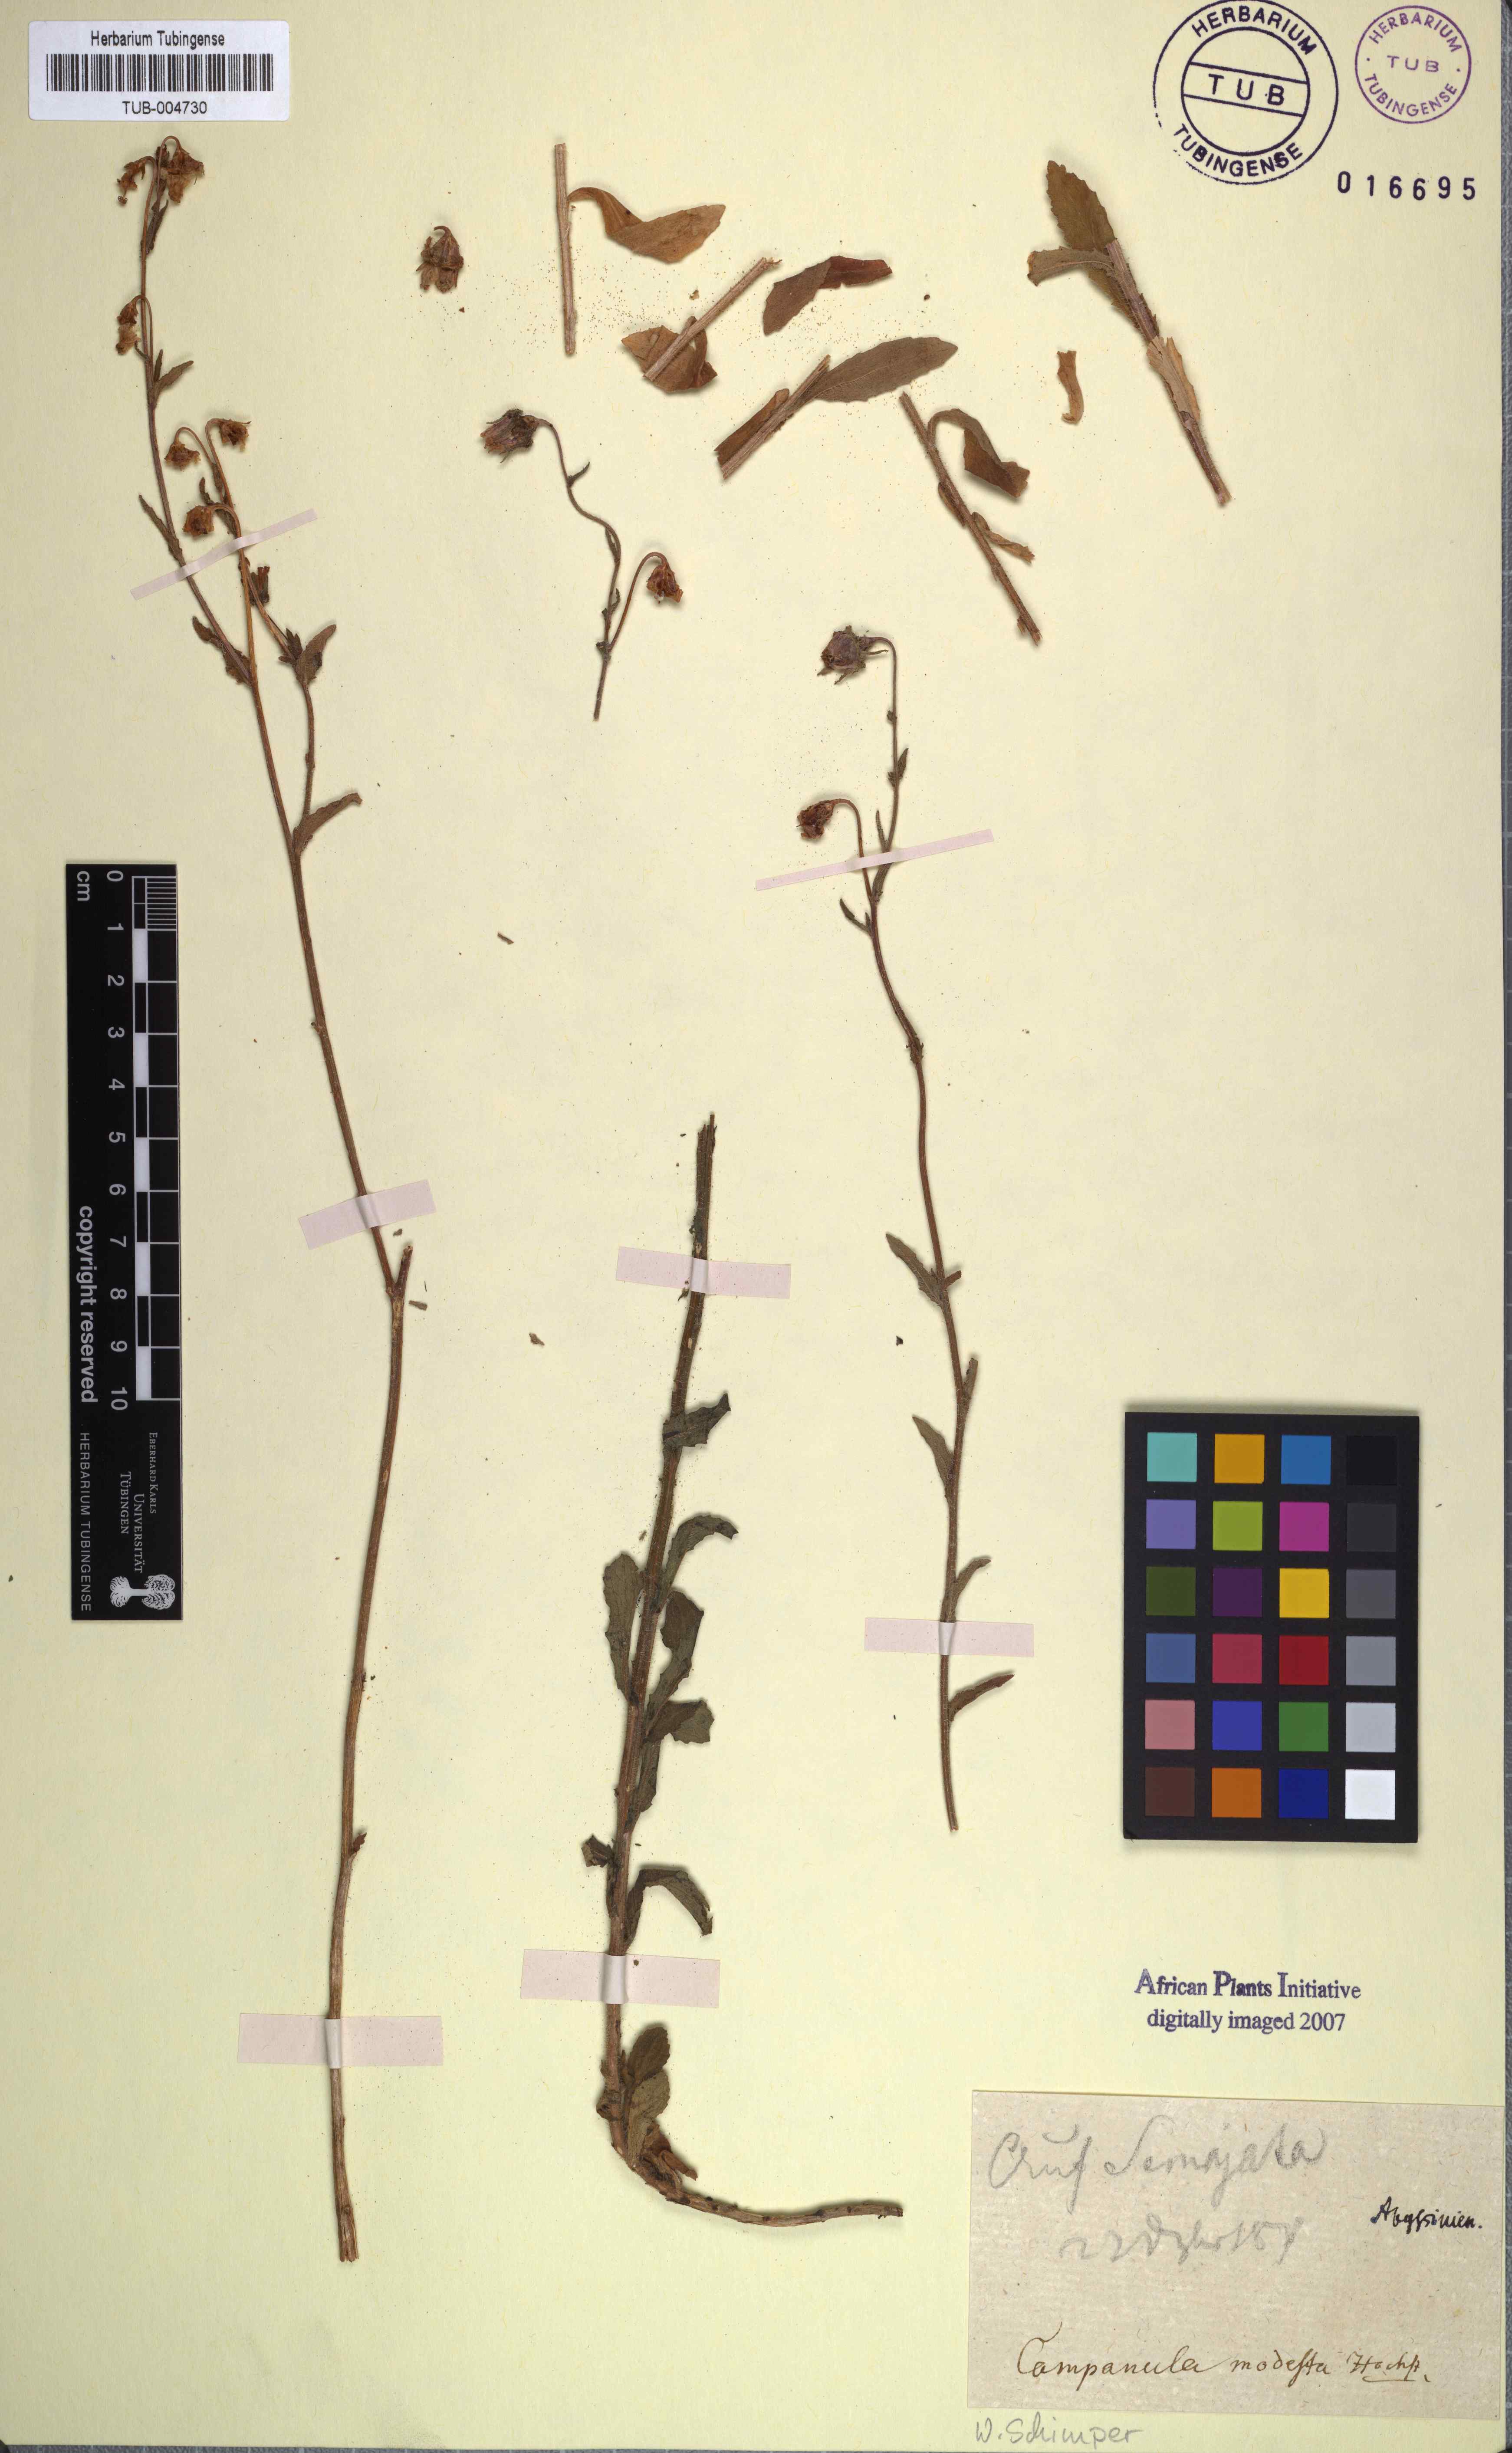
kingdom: Plantae
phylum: Tracheophyta
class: Magnoliopsida
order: Asterales
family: Campanulaceae
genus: Campanula
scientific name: Campanula
